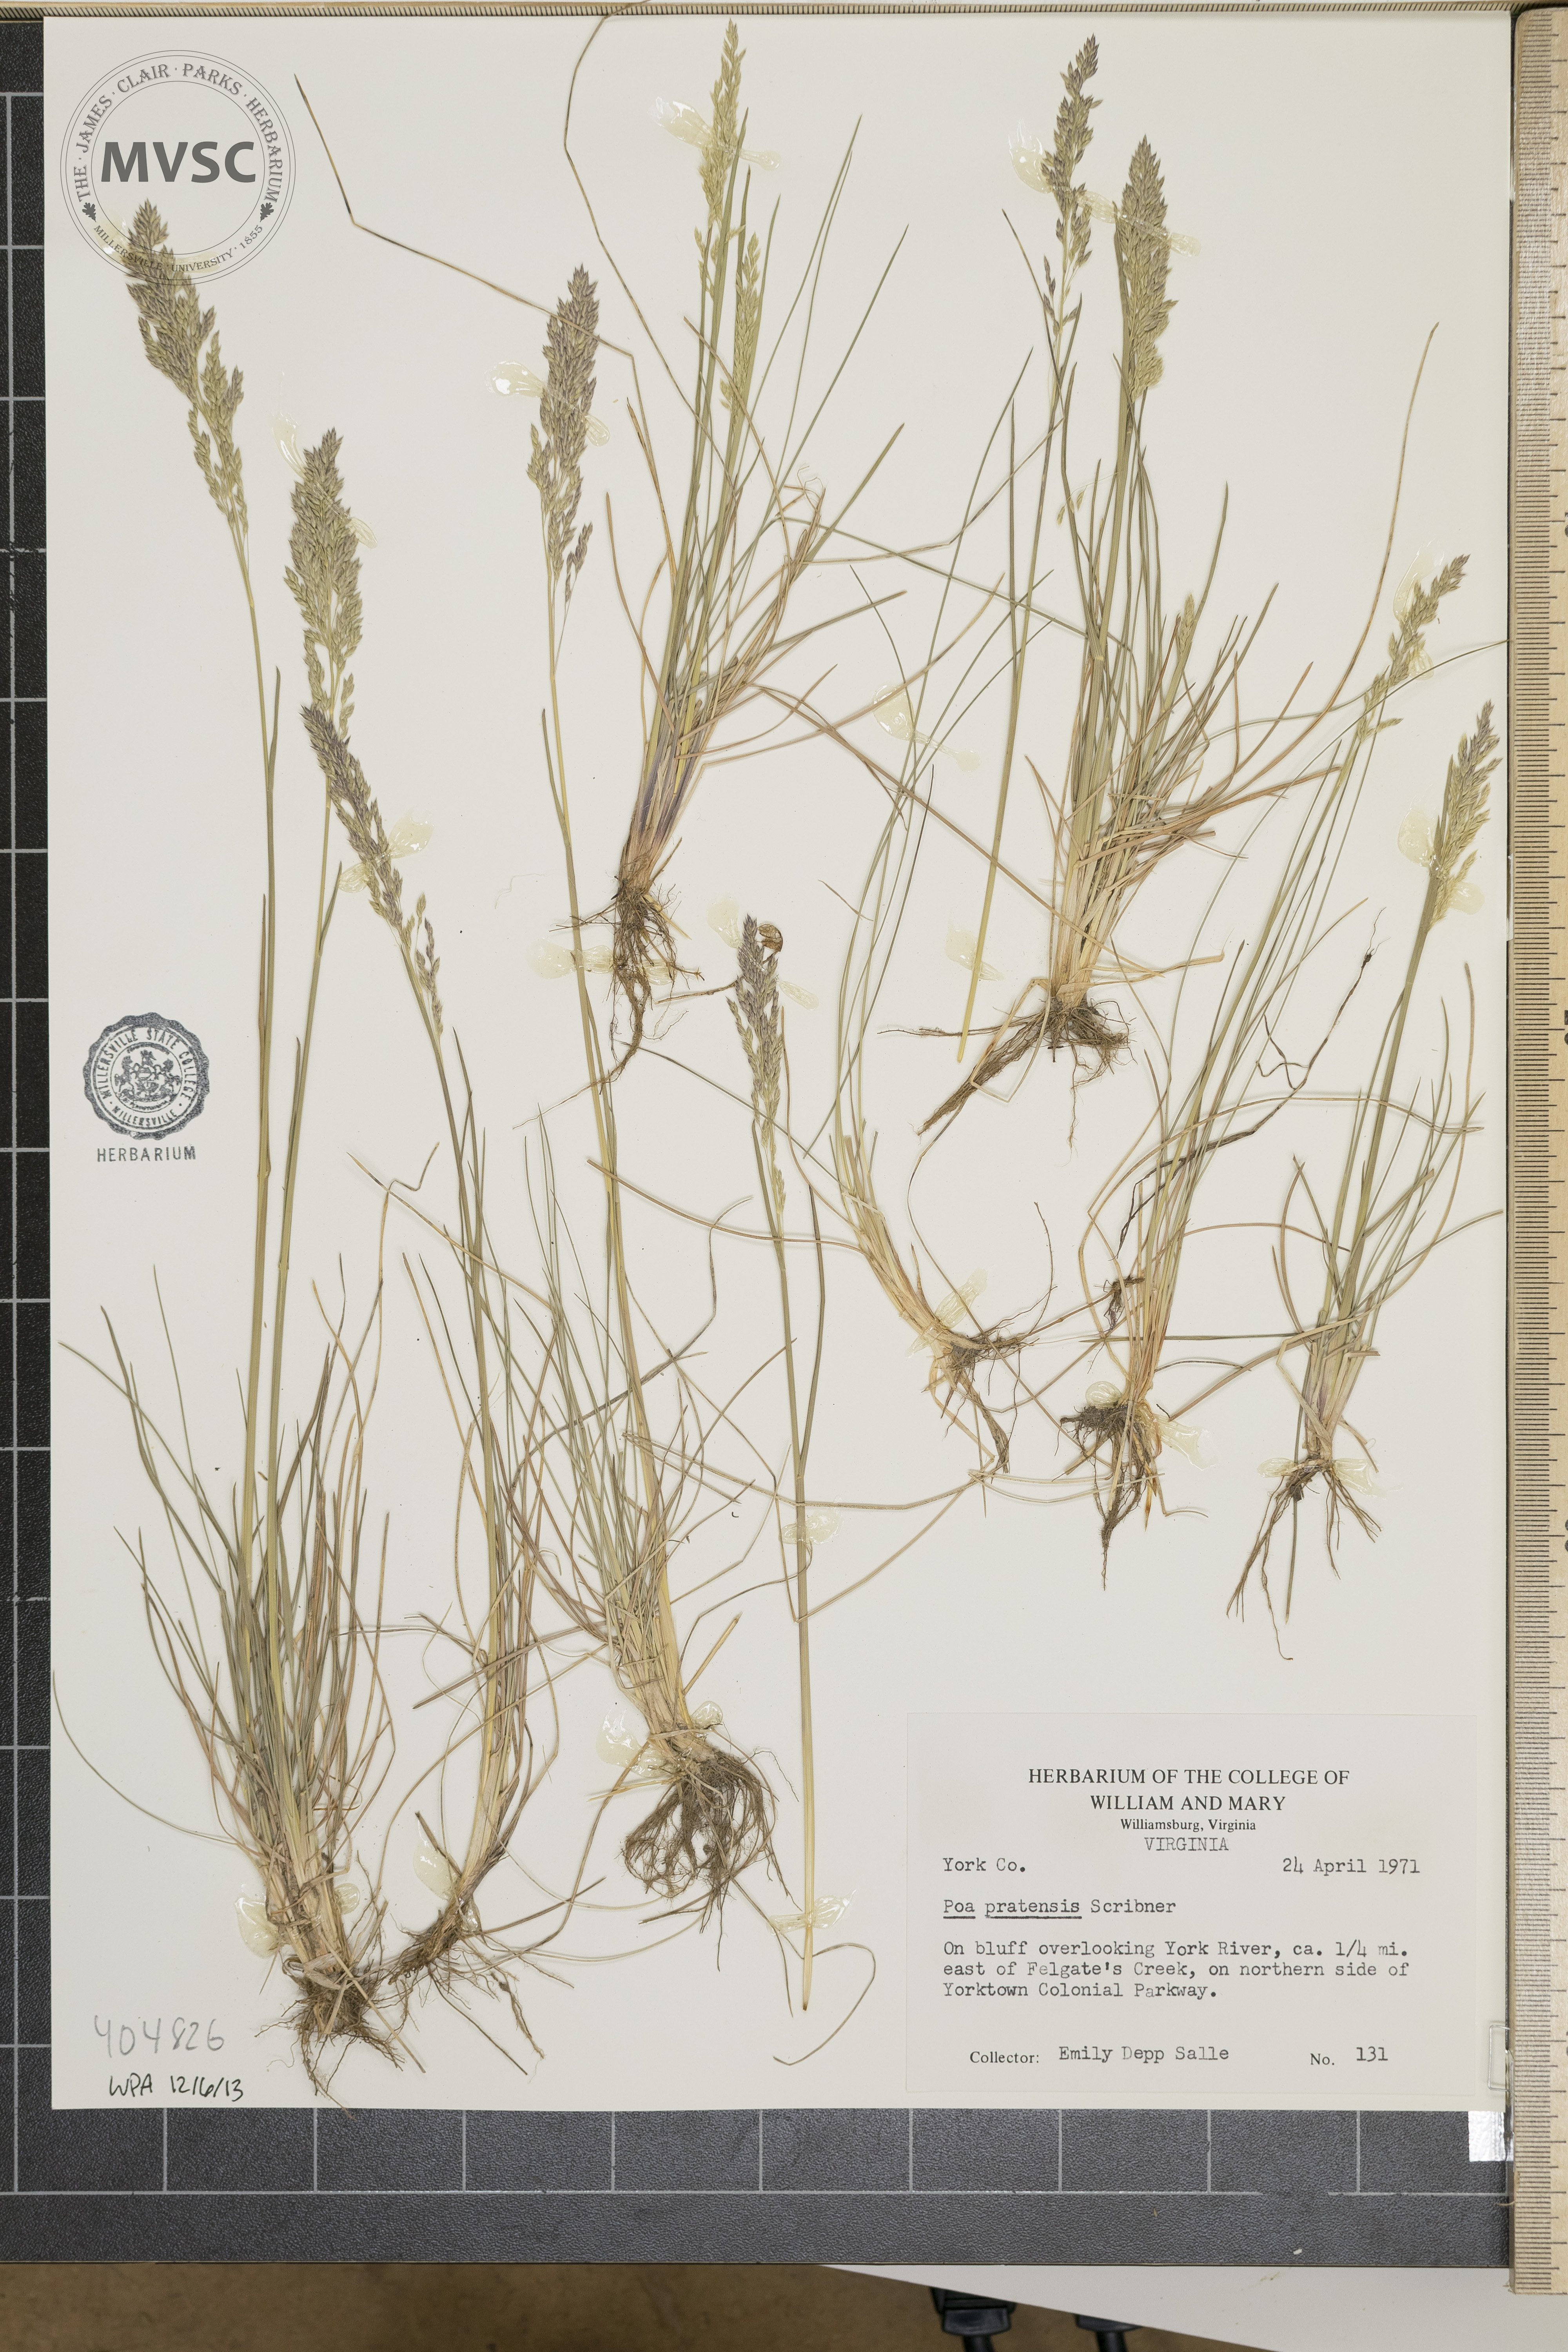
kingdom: Plantae
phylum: Tracheophyta
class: Liliopsida
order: Poales
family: Poaceae
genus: Poa
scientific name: Poa pratensis
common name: Kentucky bluegrass
